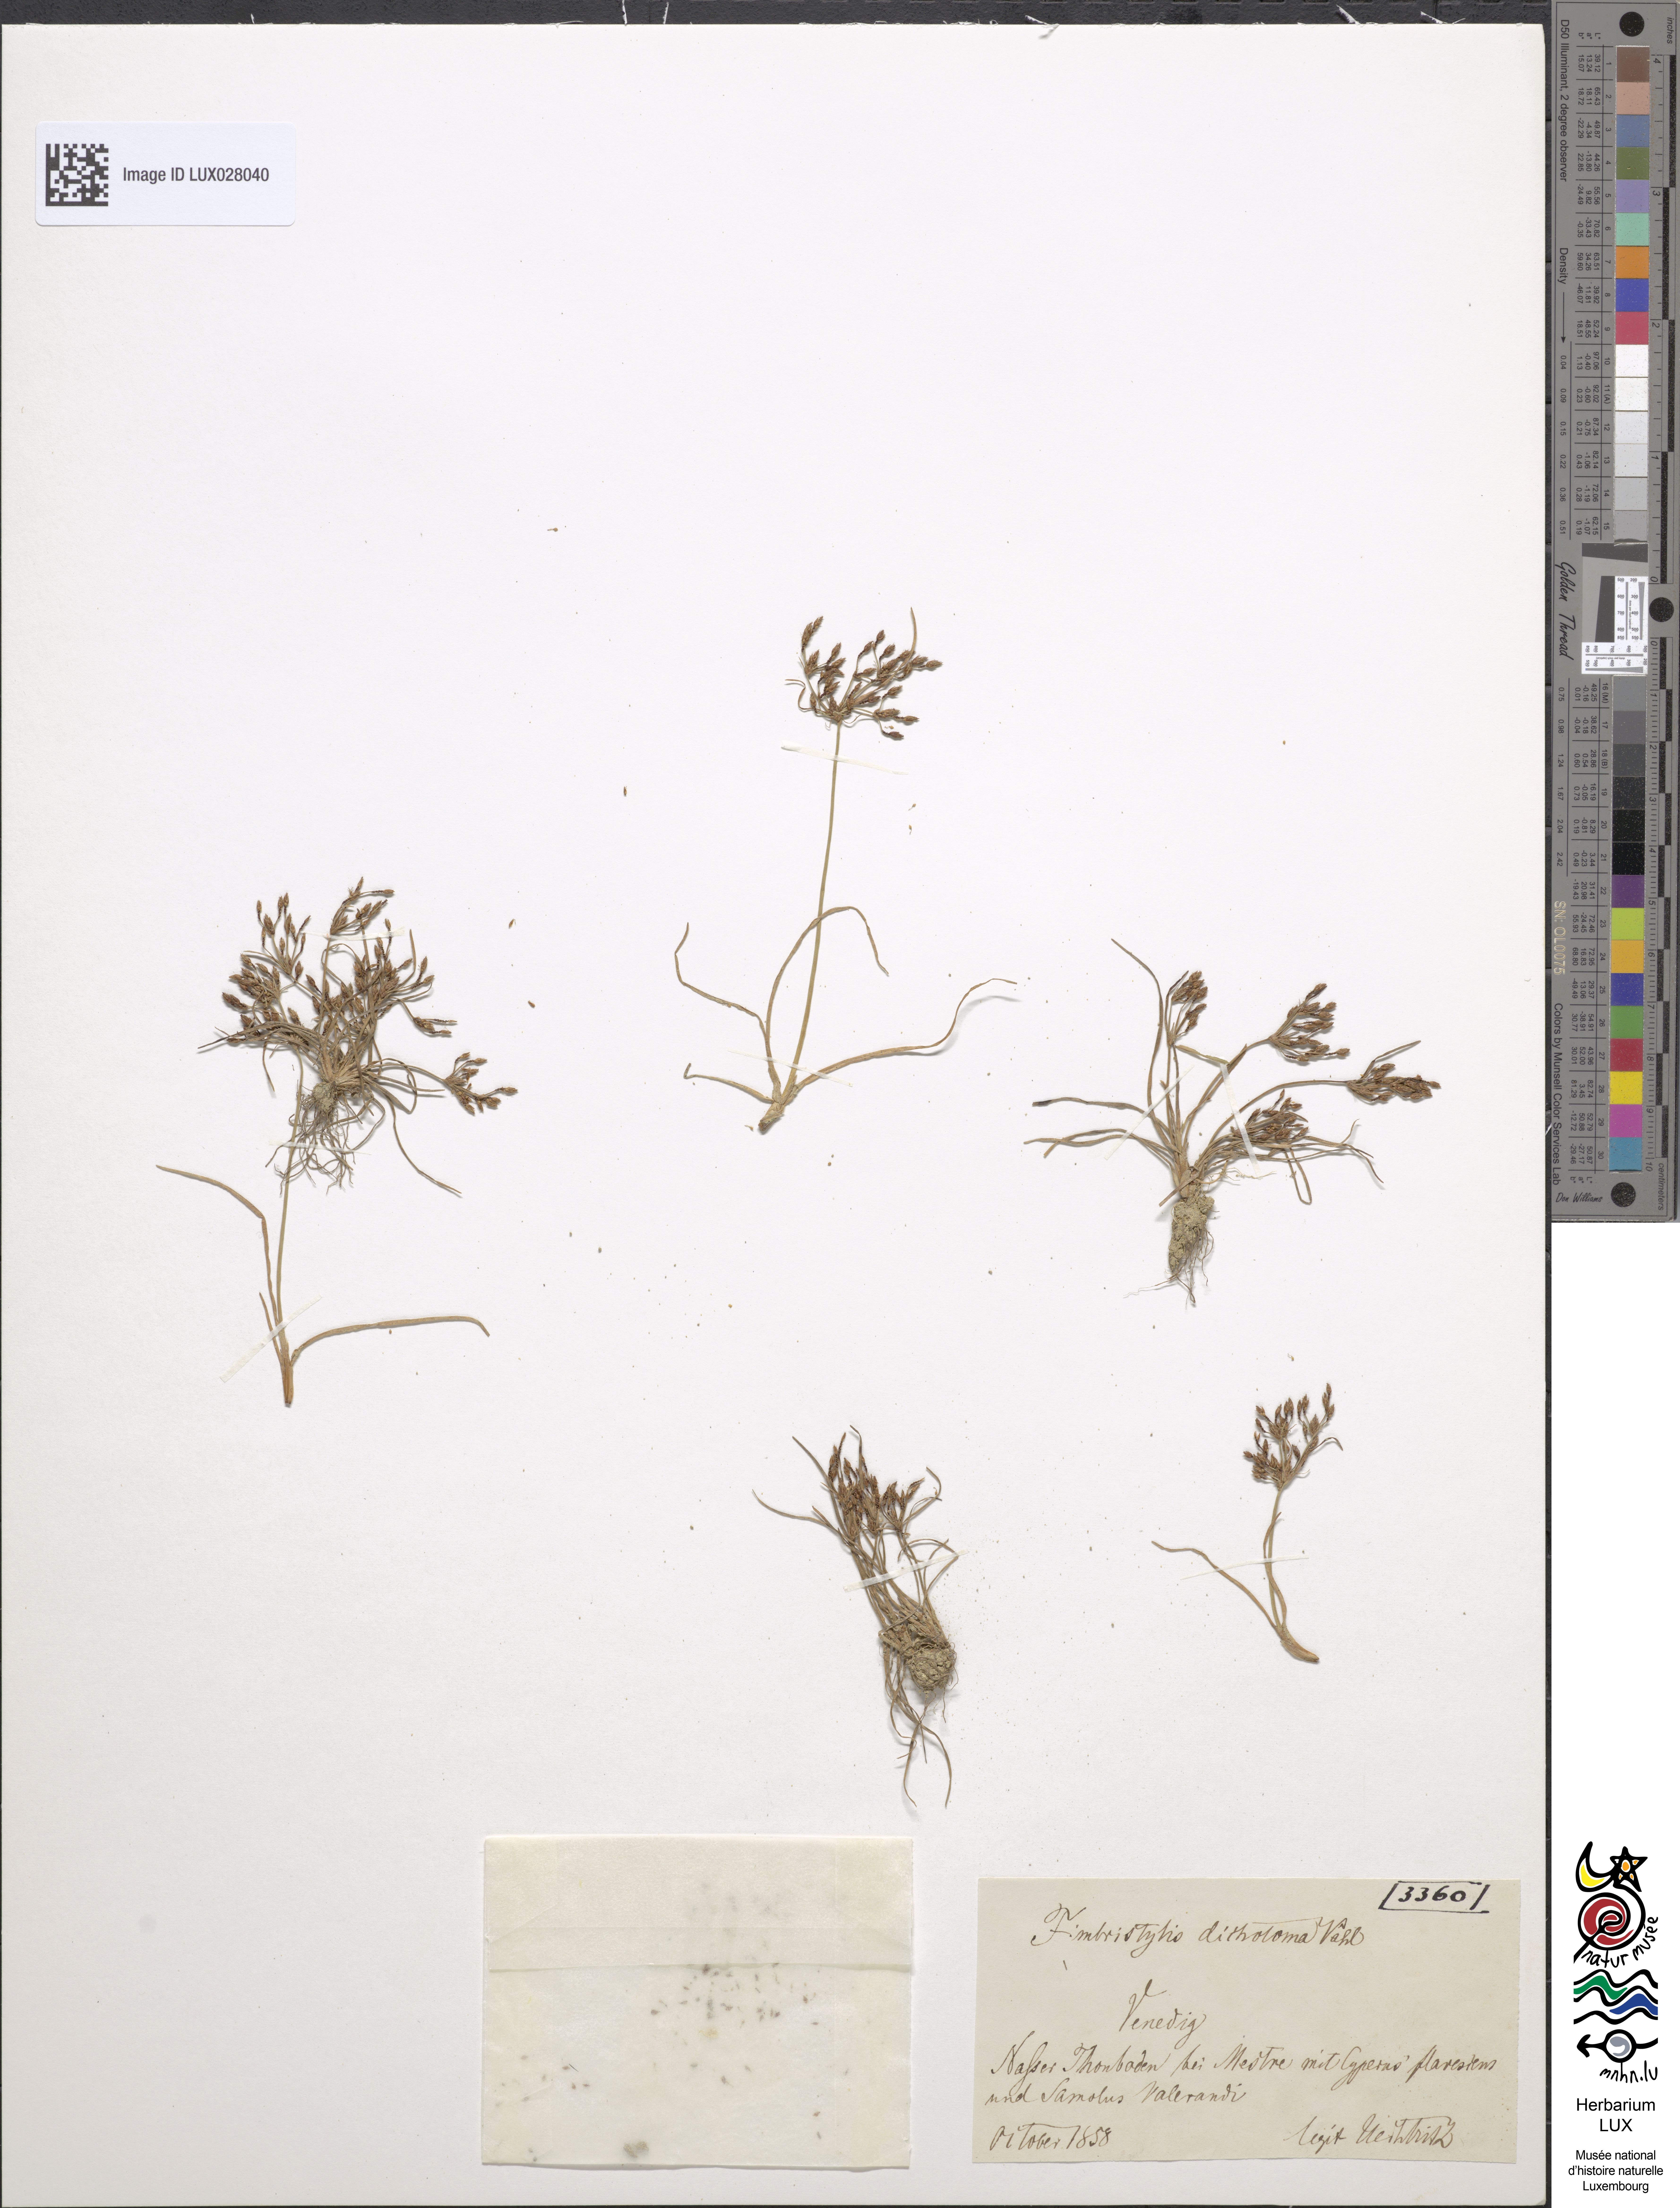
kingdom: Plantae
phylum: Tracheophyta
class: Liliopsida
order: Poales
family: Cyperaceae
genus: Fimbristylis
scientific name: Fimbristylis bisumbellata
